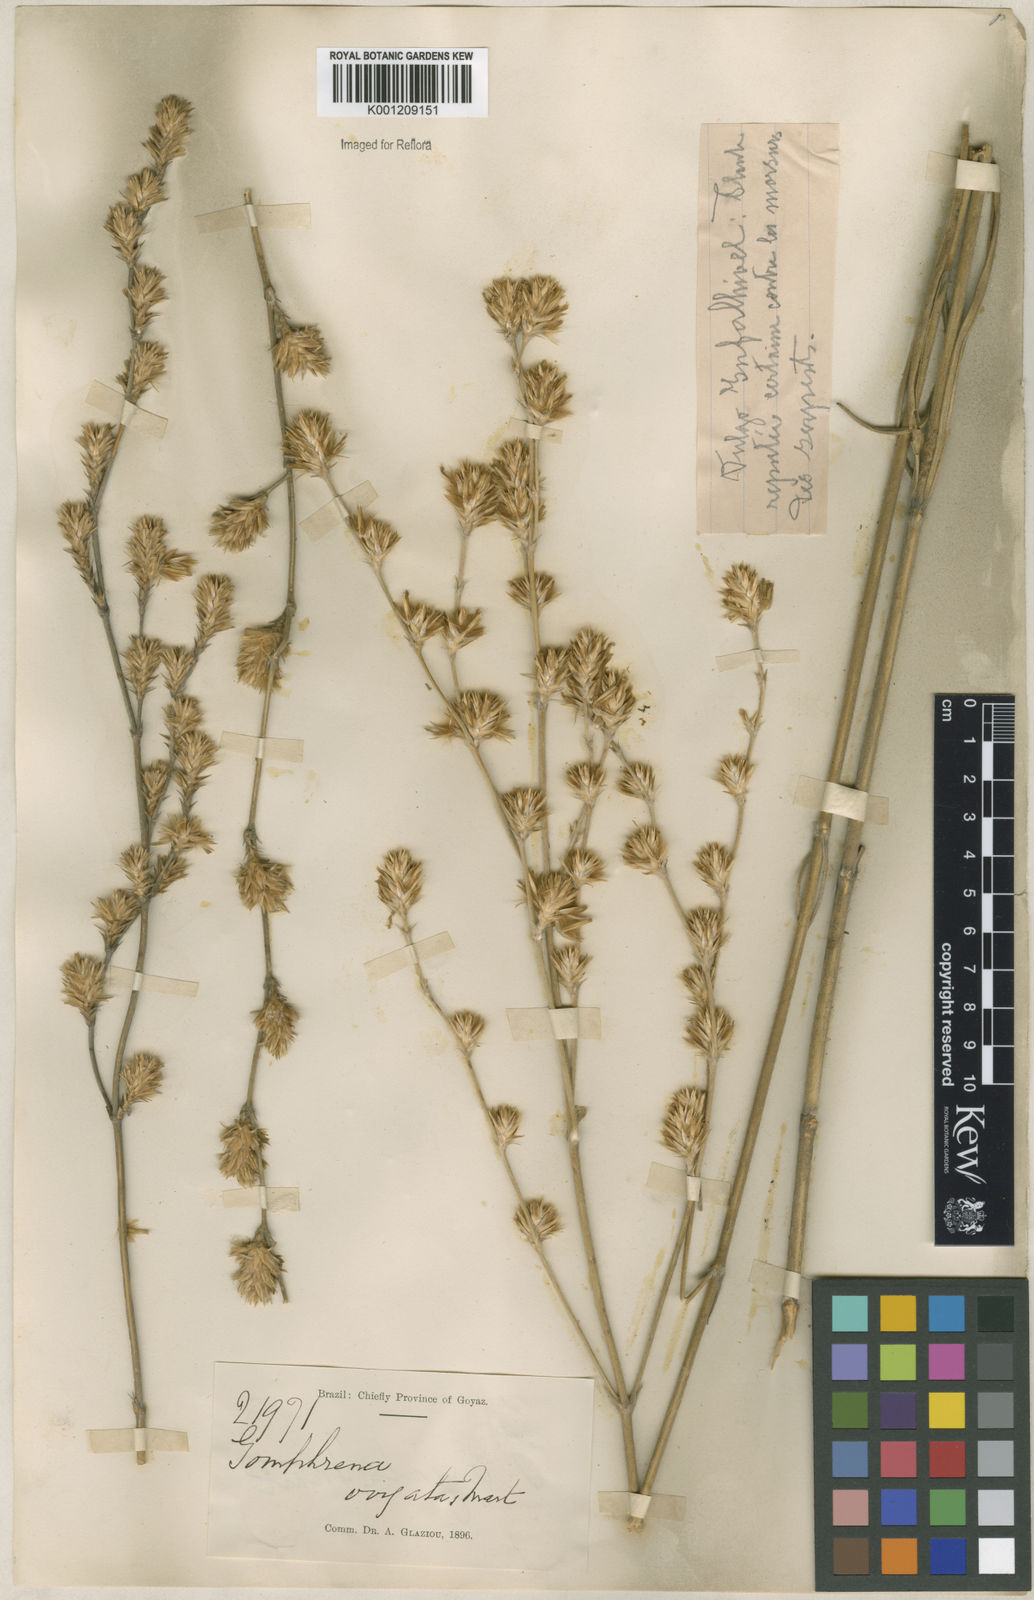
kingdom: Plantae
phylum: Tracheophyta
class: Magnoliopsida
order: Caryophyllales
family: Amaranthaceae
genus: Gomphrena
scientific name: Gomphrena virgata
